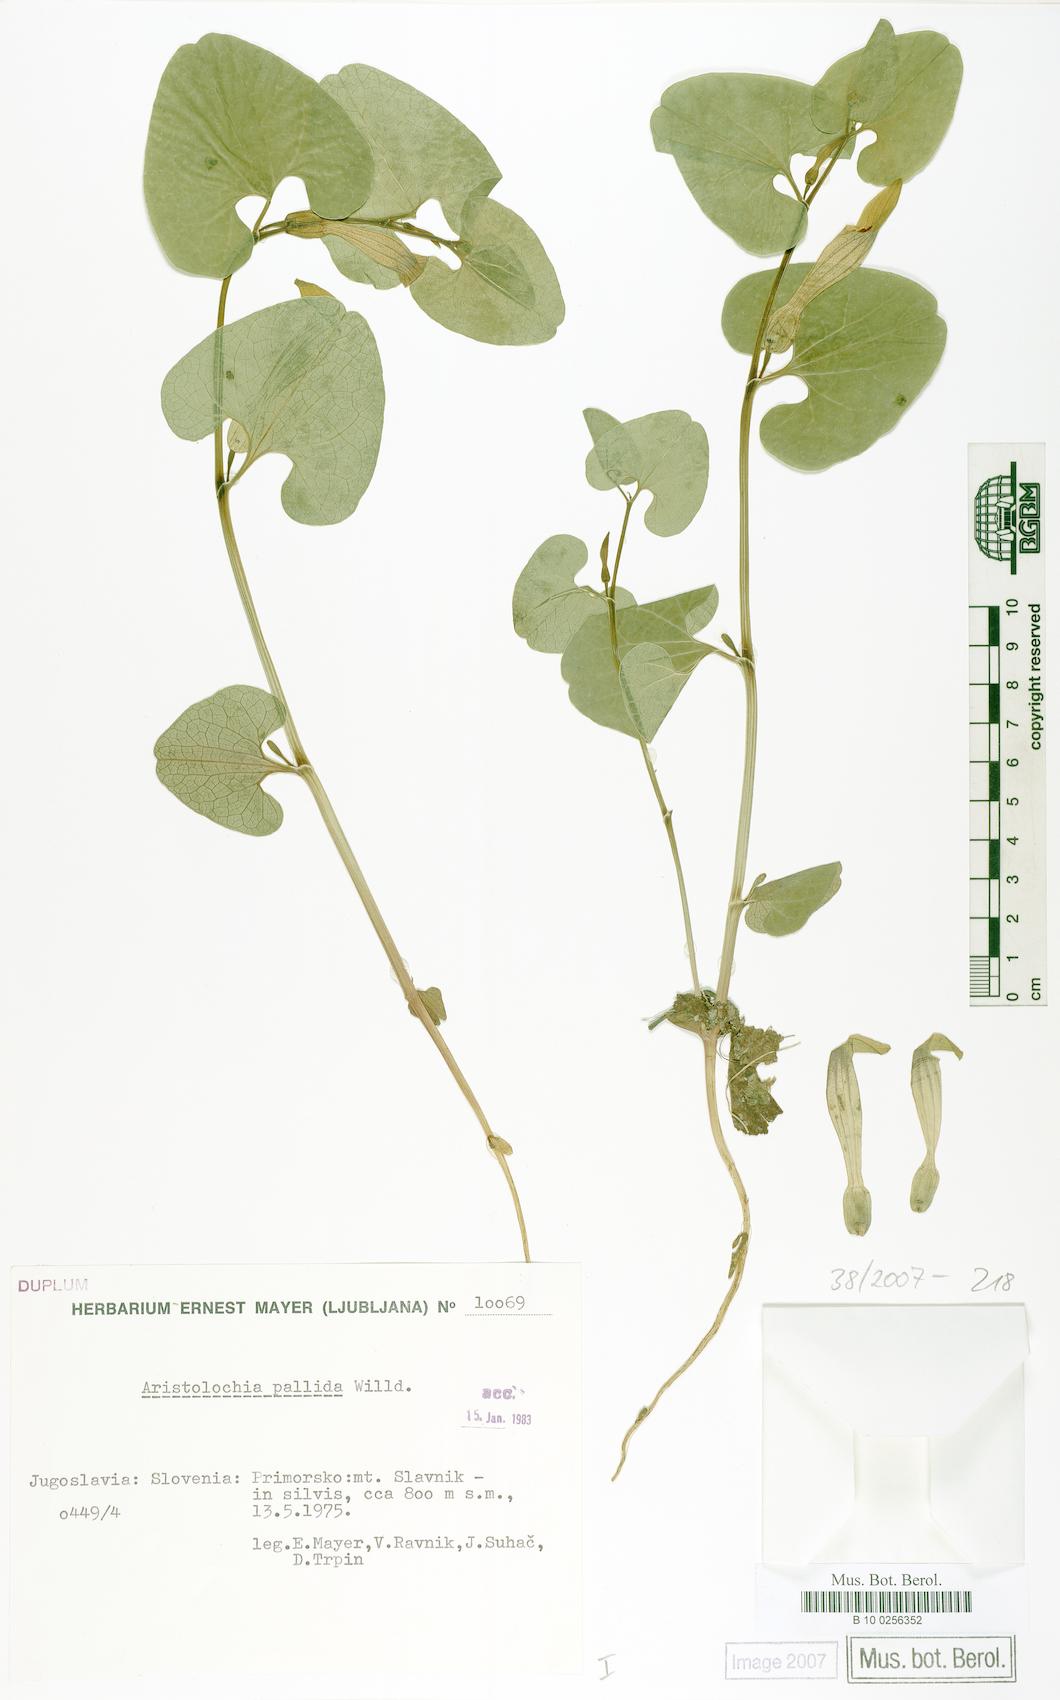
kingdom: Plantae
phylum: Tracheophyta
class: Magnoliopsida
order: Piperales
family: Aristolochiaceae
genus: Aristolochia
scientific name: Aristolochia pallida
